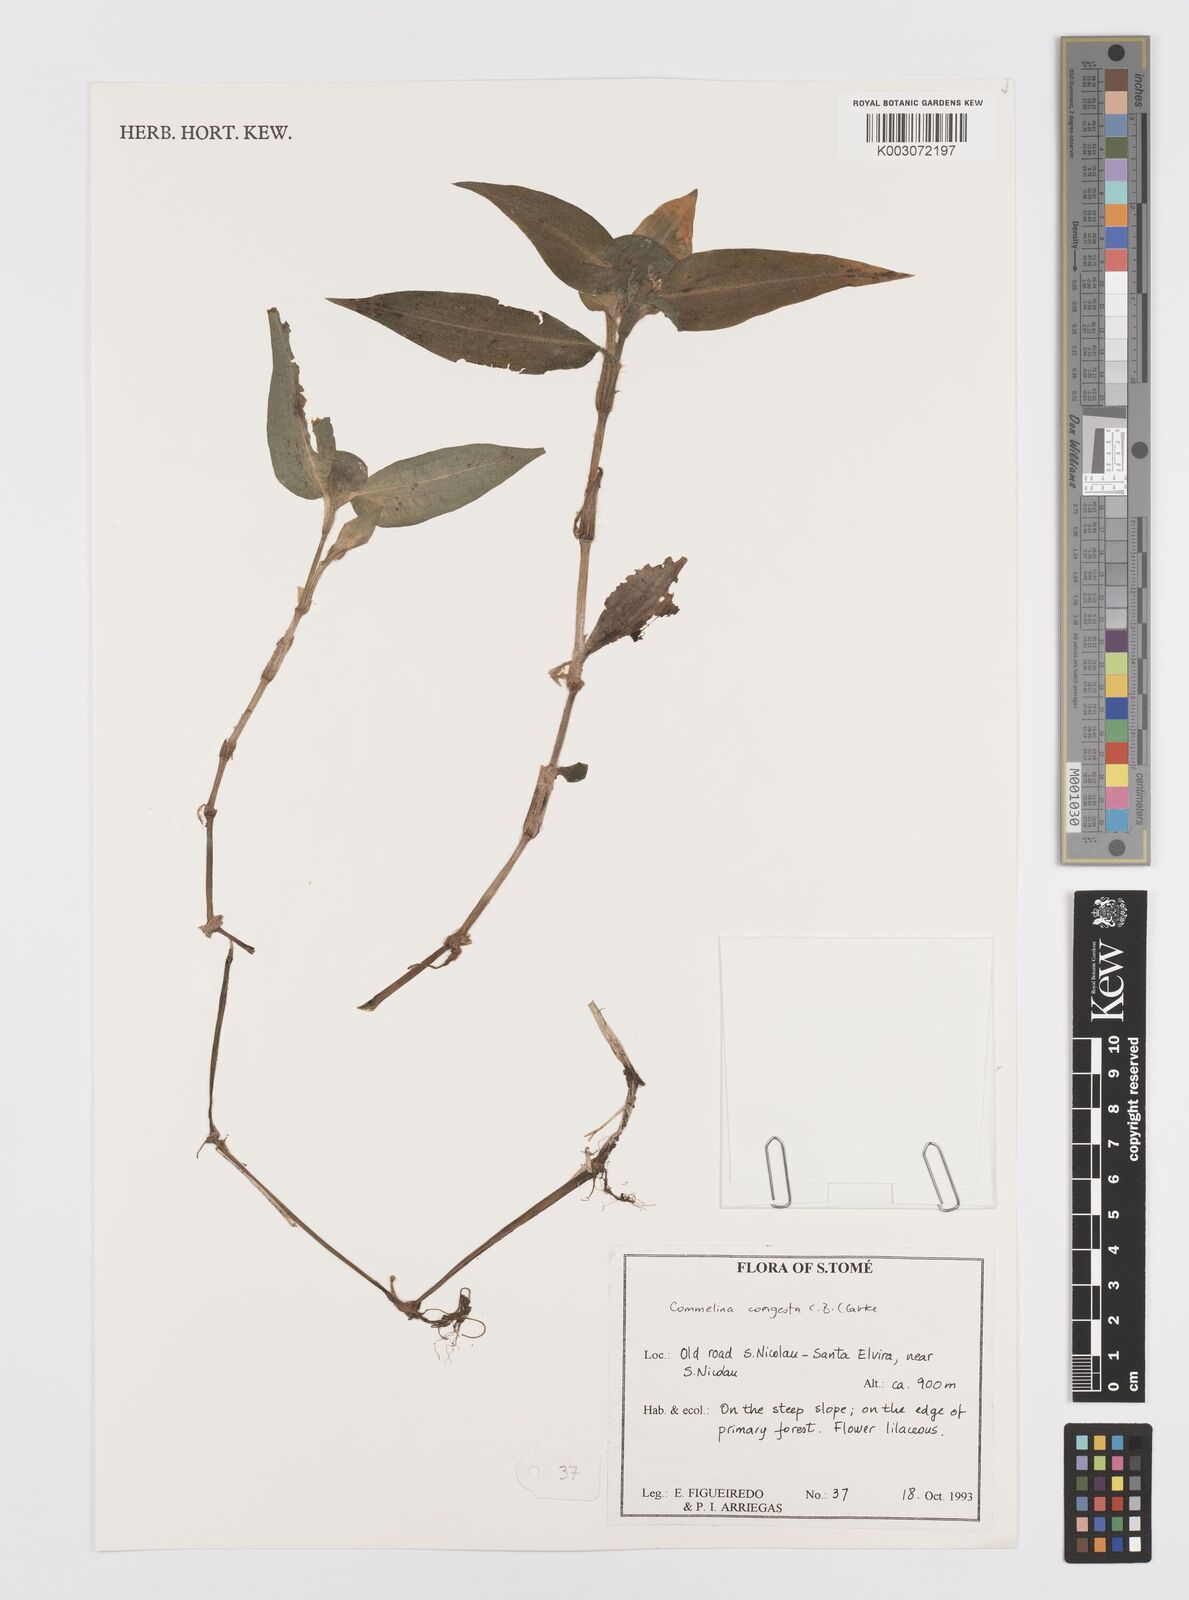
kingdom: Plantae
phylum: Tracheophyta
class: Liliopsida
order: Commelinales
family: Commelinaceae
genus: Commelina
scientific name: Commelina congesta
